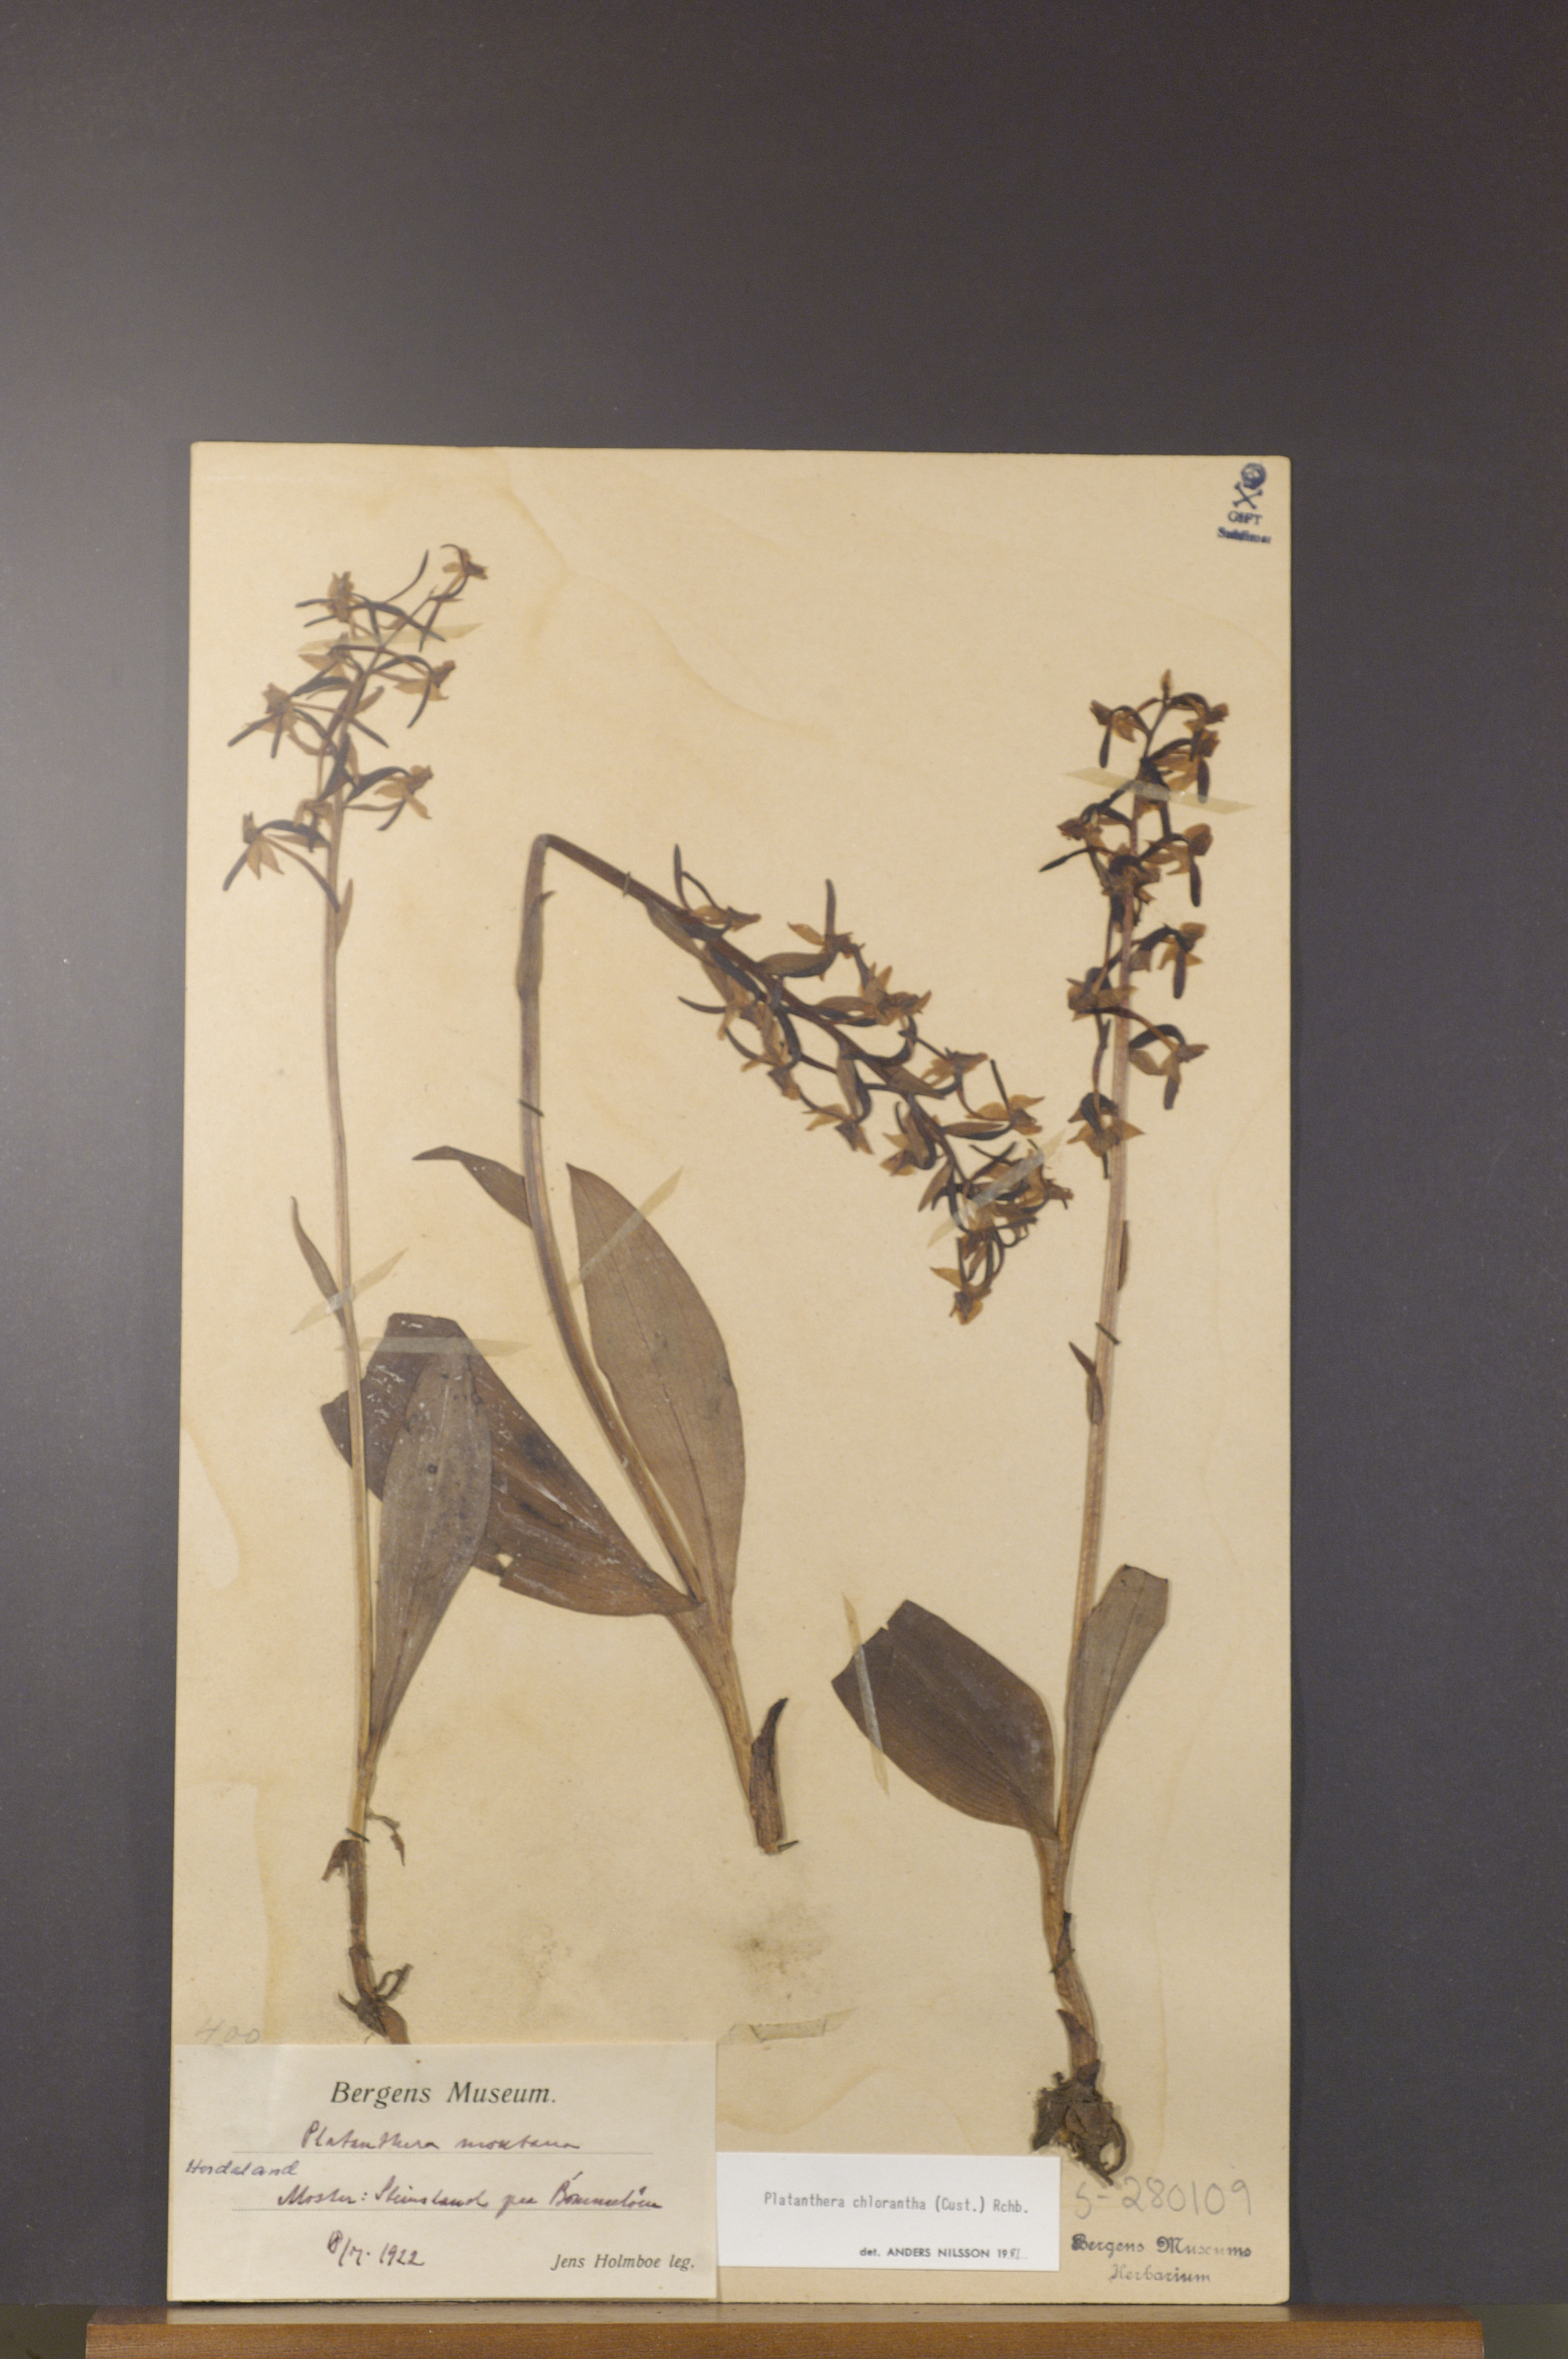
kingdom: Plantae
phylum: Tracheophyta
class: Liliopsida
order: Asparagales
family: Orchidaceae
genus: Platanthera
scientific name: Platanthera chlorantha
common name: Greater butterfly-orchid
